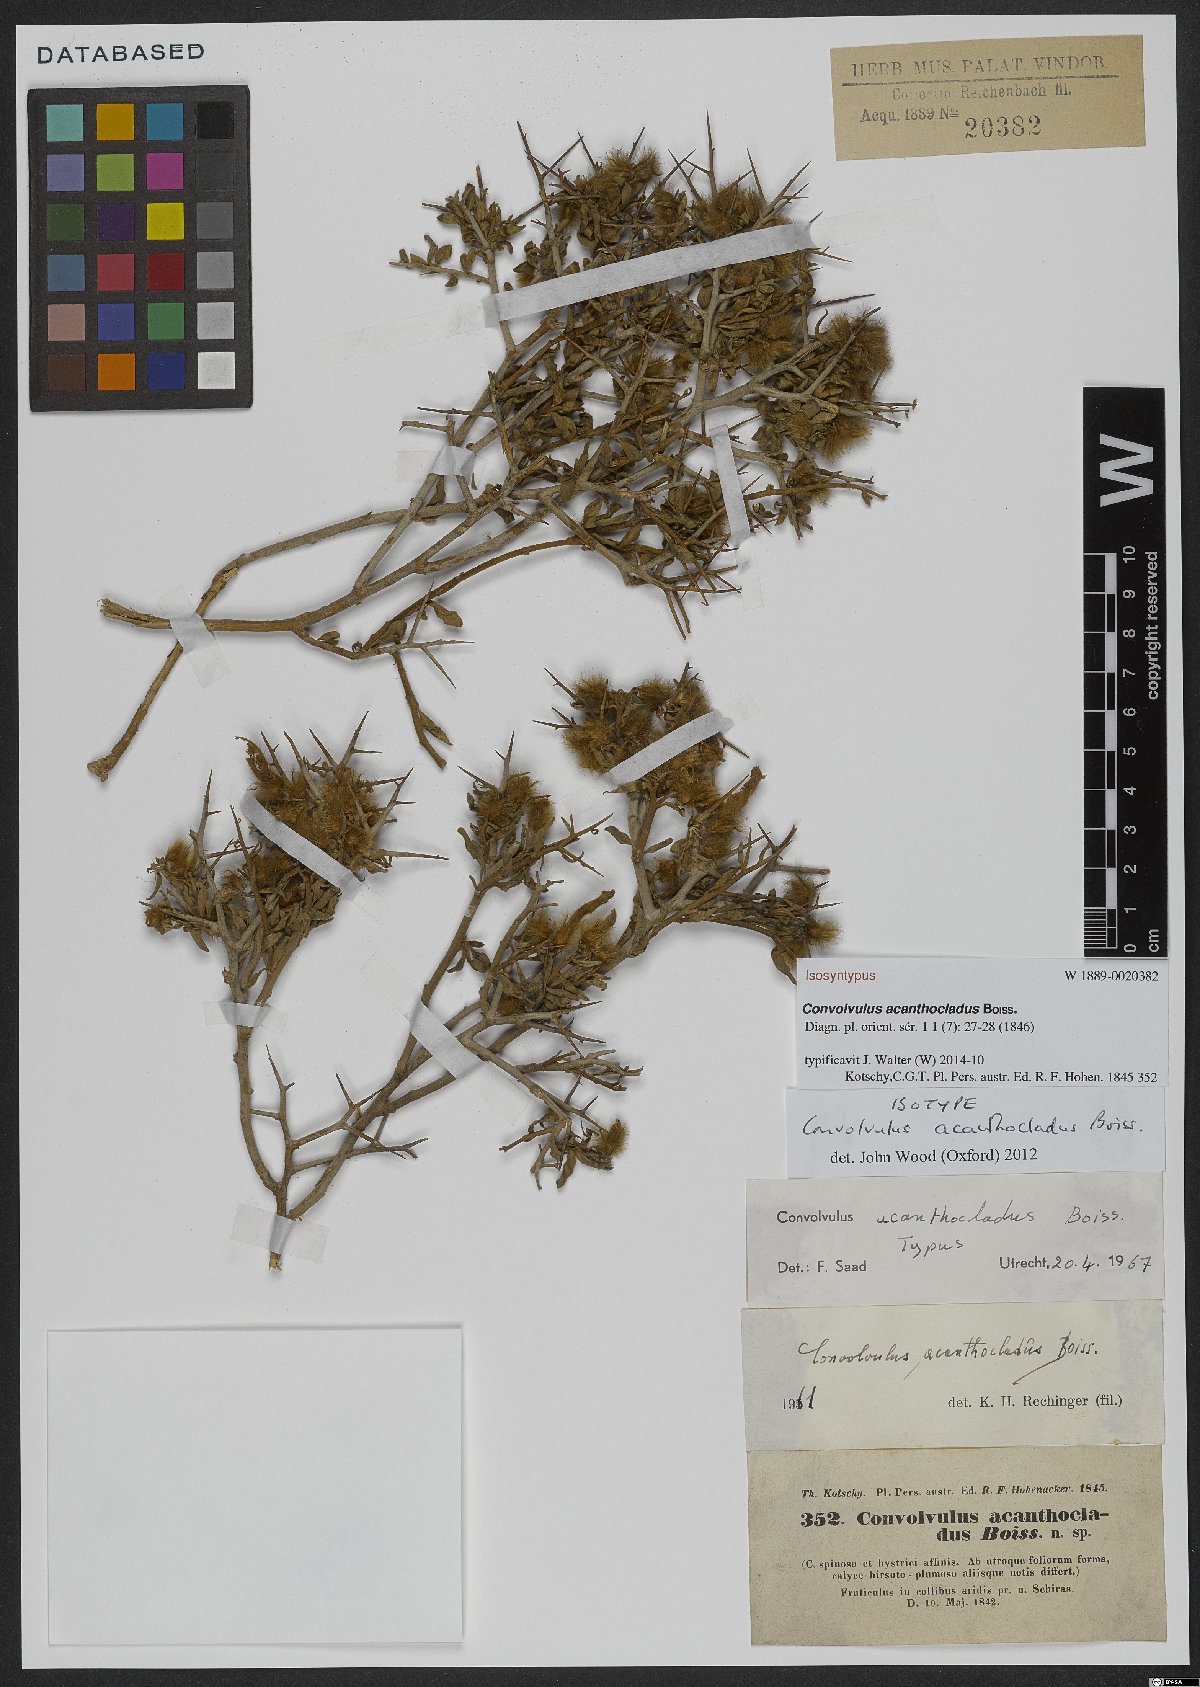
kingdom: Plantae
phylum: Tracheophyta
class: Magnoliopsida
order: Solanales
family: Convolvulaceae
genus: Convolvulus
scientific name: Convolvulus acanthocladus
